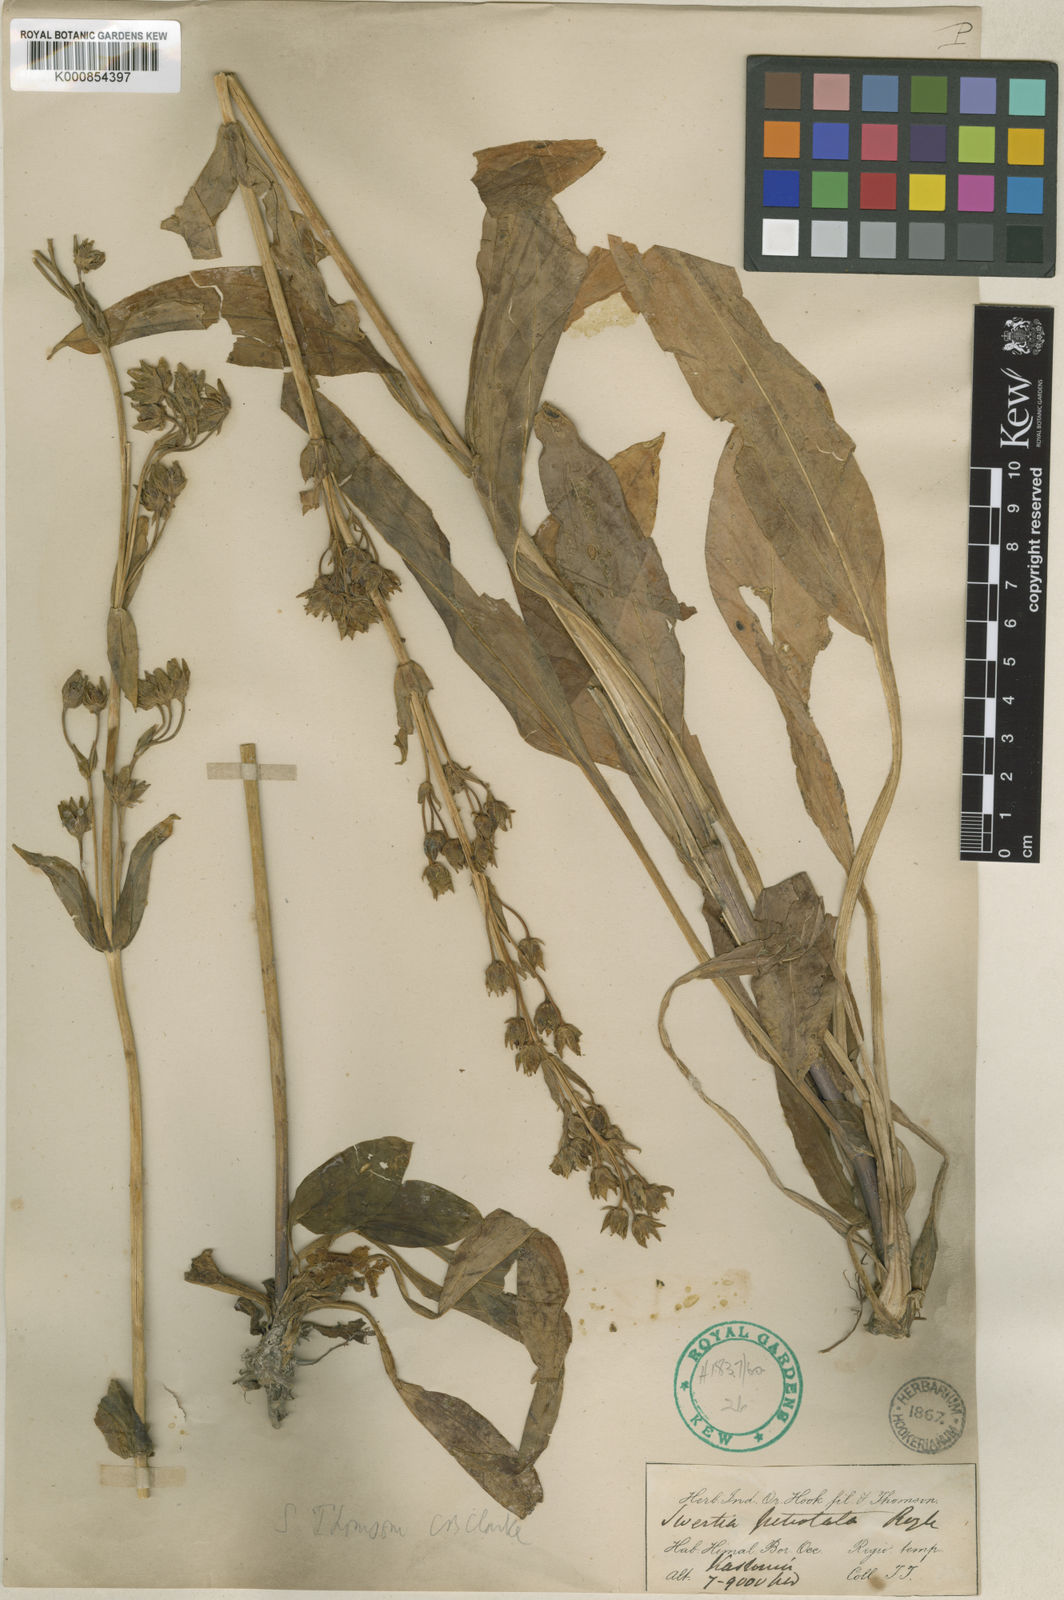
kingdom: Plantae
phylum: Tracheophyta
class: Magnoliopsida
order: Gentianales
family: Gentianaceae
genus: Swertia
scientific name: Swertia thomsonii
